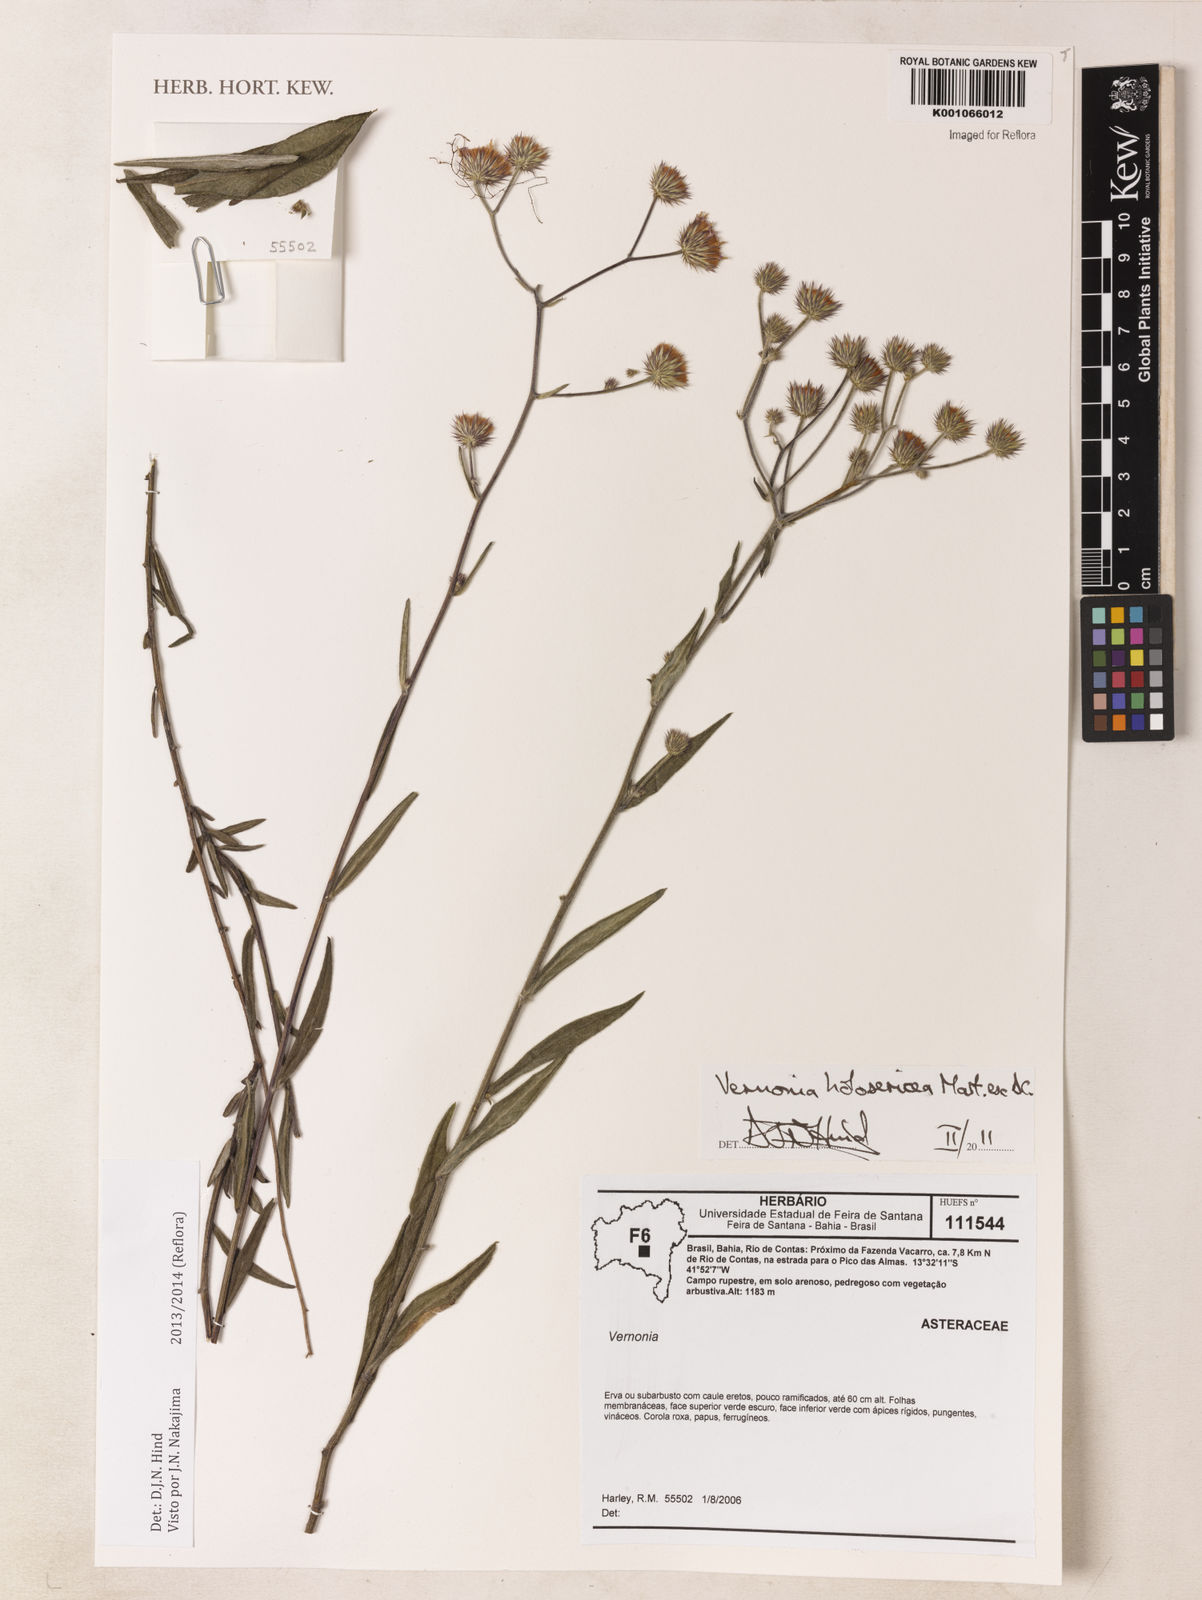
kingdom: Plantae
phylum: Tracheophyta
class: Magnoliopsida
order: Asterales
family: Asteraceae
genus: Echinocoryne
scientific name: Echinocoryne holosericea
